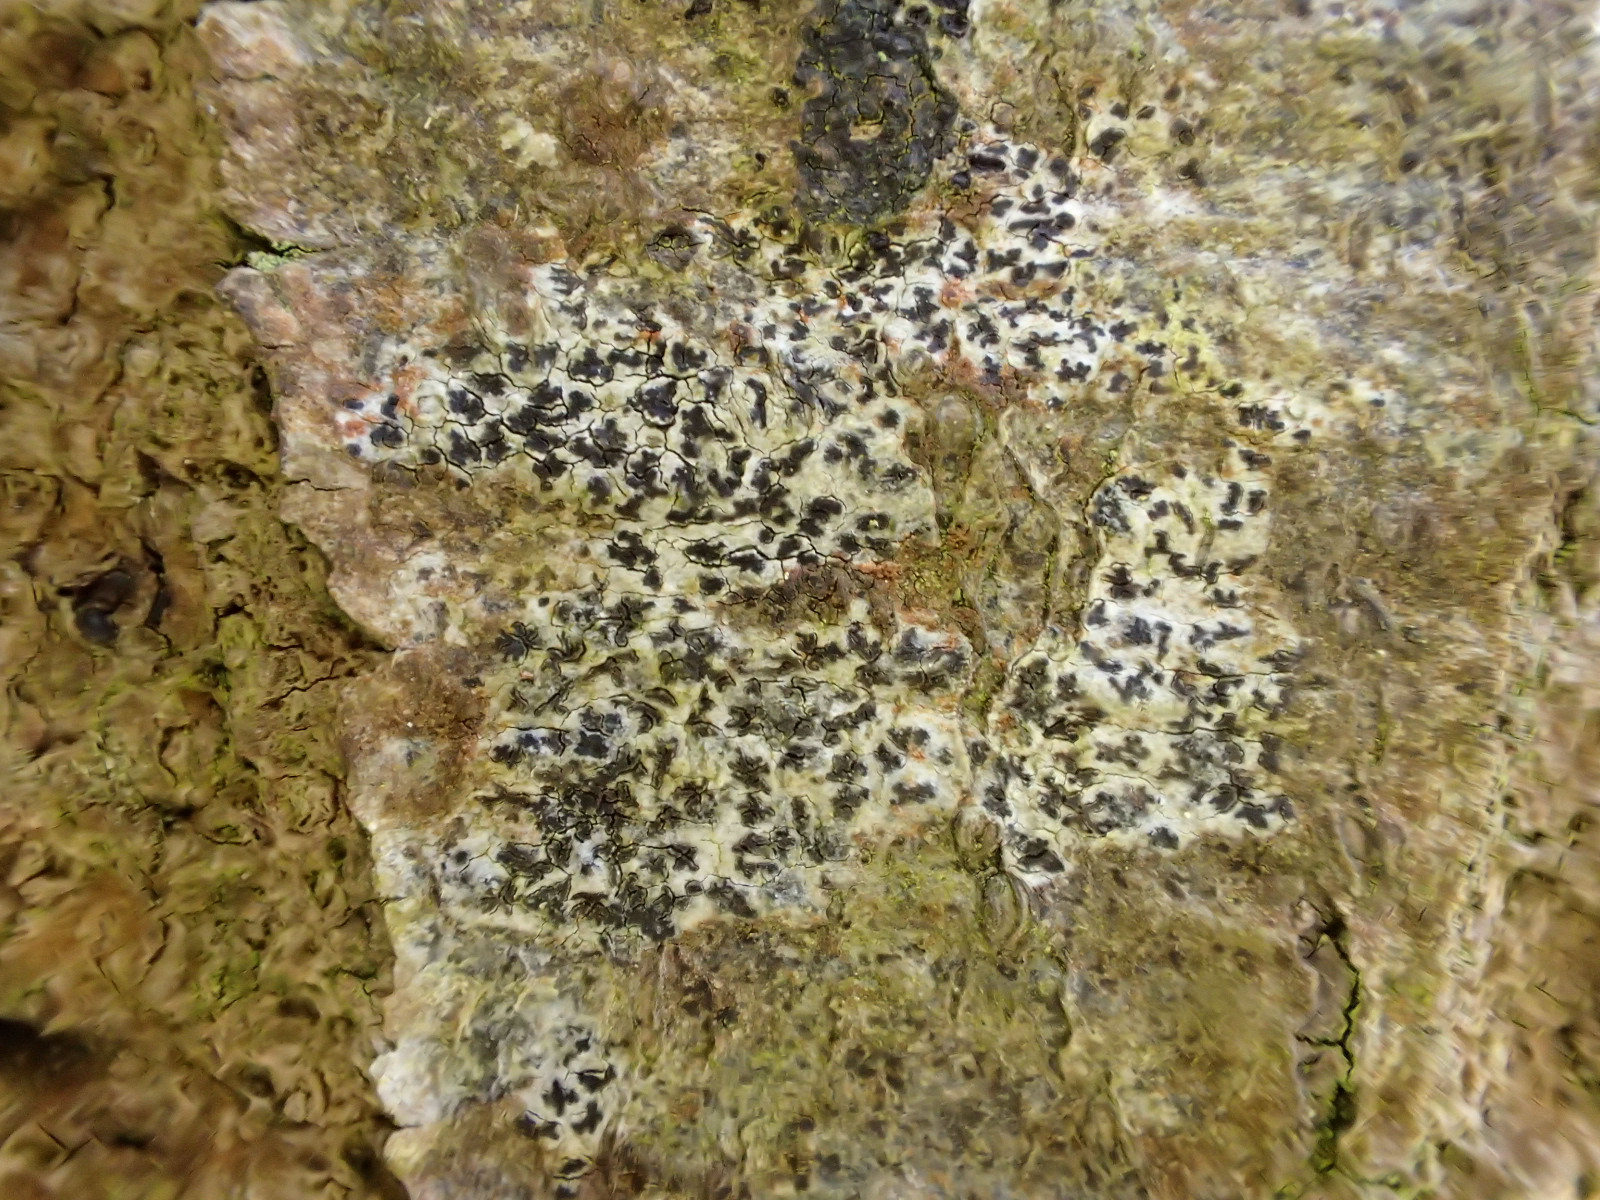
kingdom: Fungi
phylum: Ascomycota
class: Arthoniomycetes
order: Arthoniales
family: Arthoniaceae
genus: Arthonia
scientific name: Arthonia radiata
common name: stjerne-pletlav
